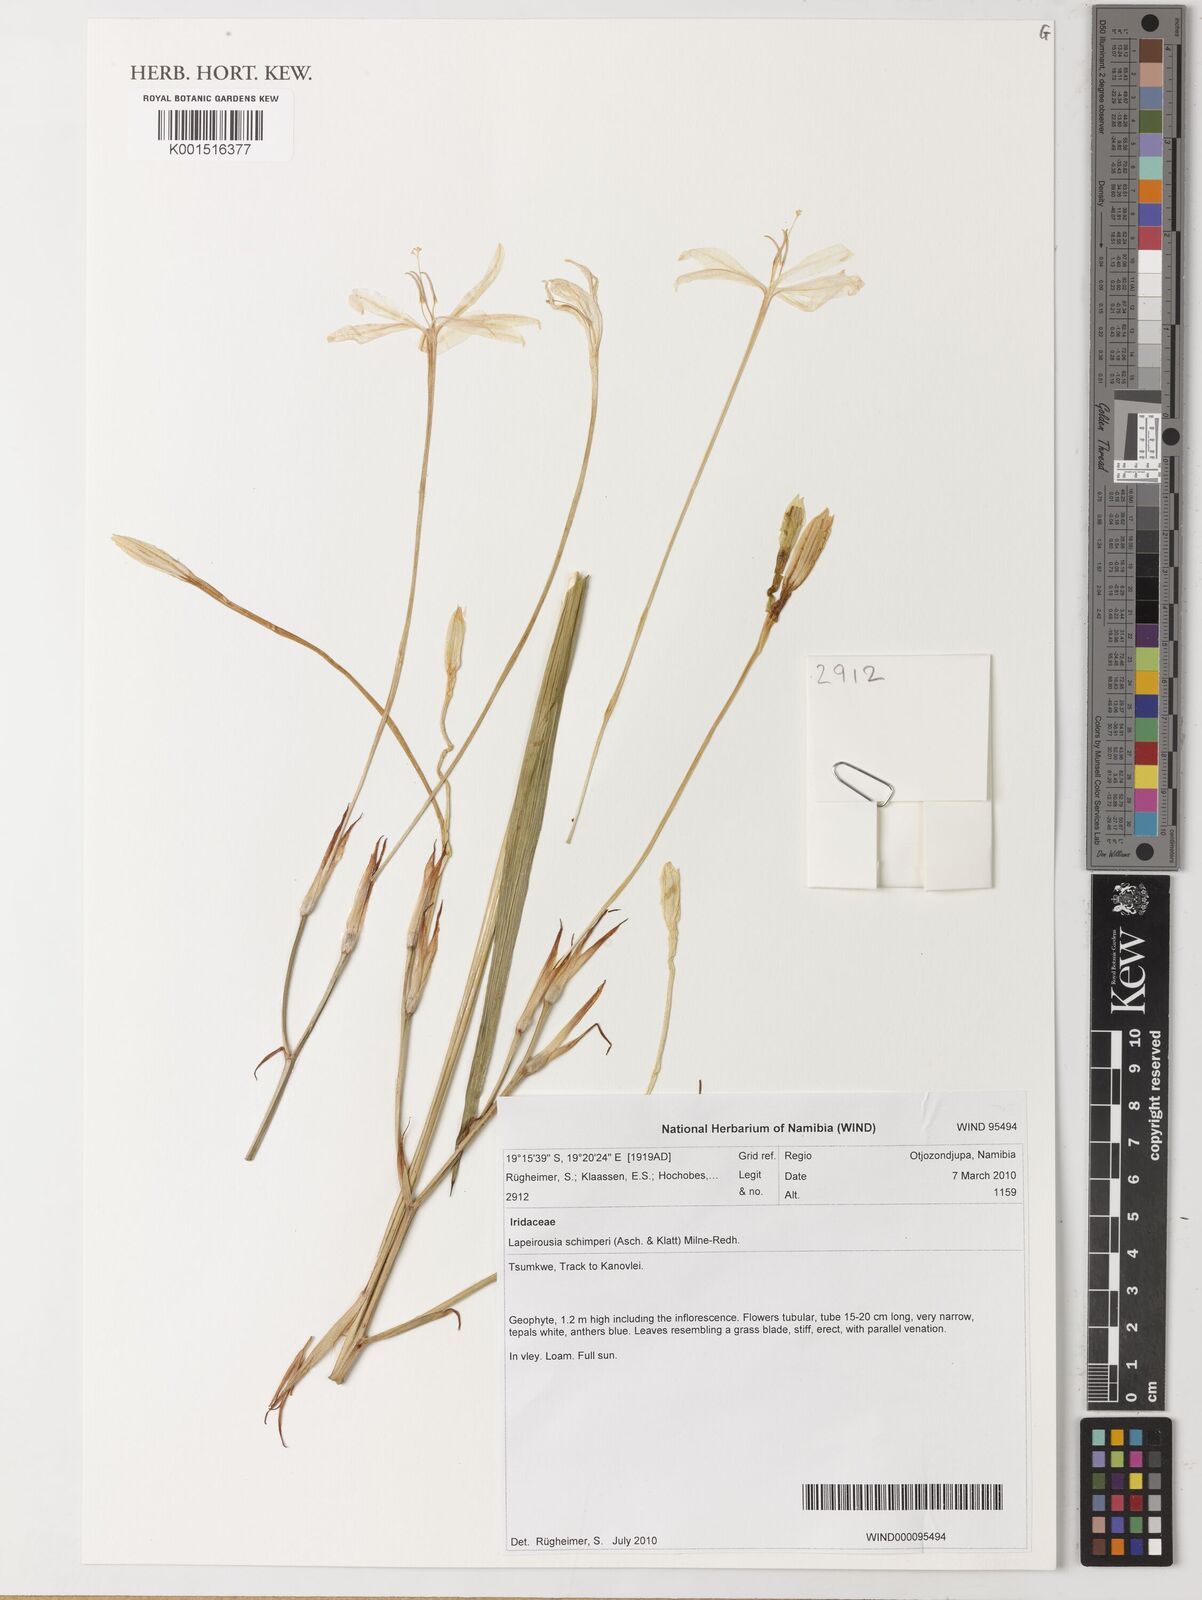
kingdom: Plantae
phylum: Tracheophyta
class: Liliopsida
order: Asparagales
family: Iridaceae
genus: Afrosolen
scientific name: Afrosolen schimperi
